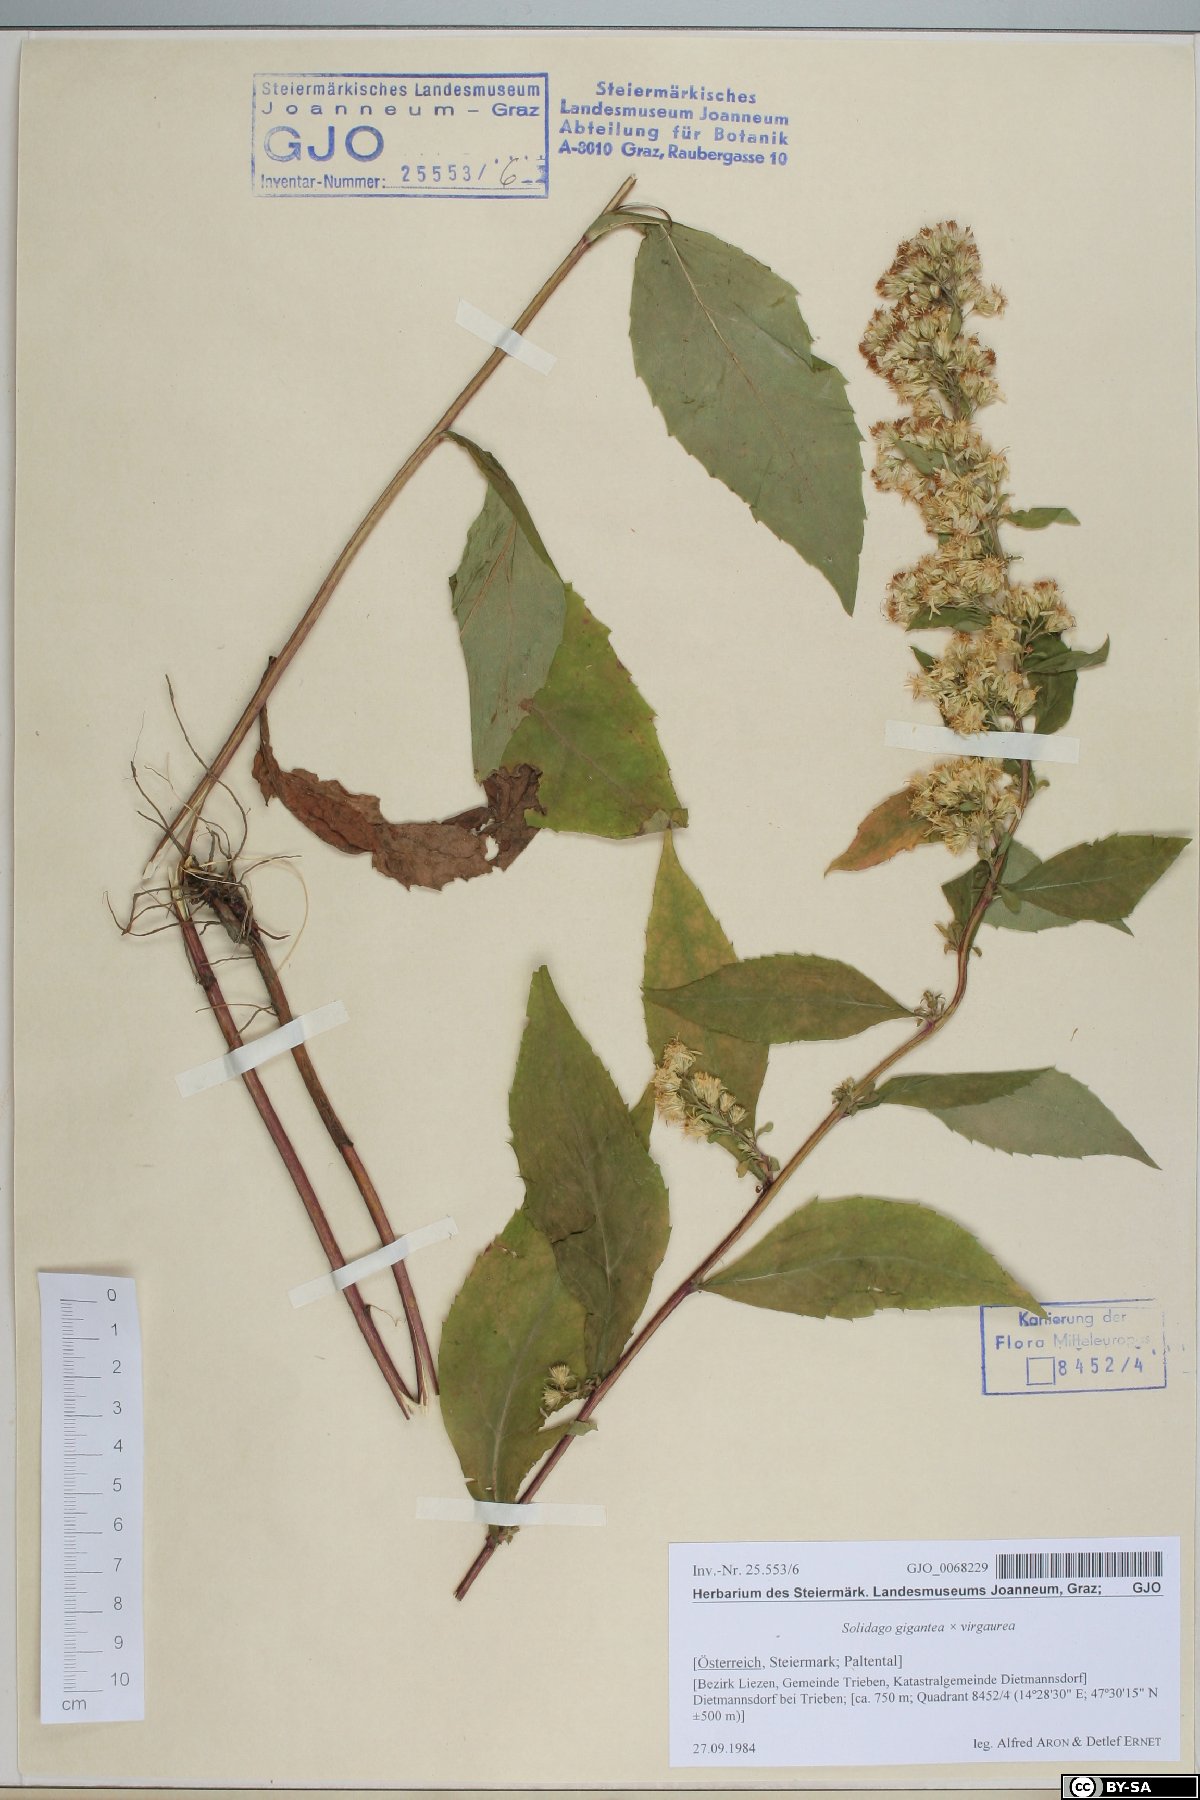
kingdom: Plantae
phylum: Tracheophyta
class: Magnoliopsida
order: Asterales
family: Asteraceae
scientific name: Asteraceae
